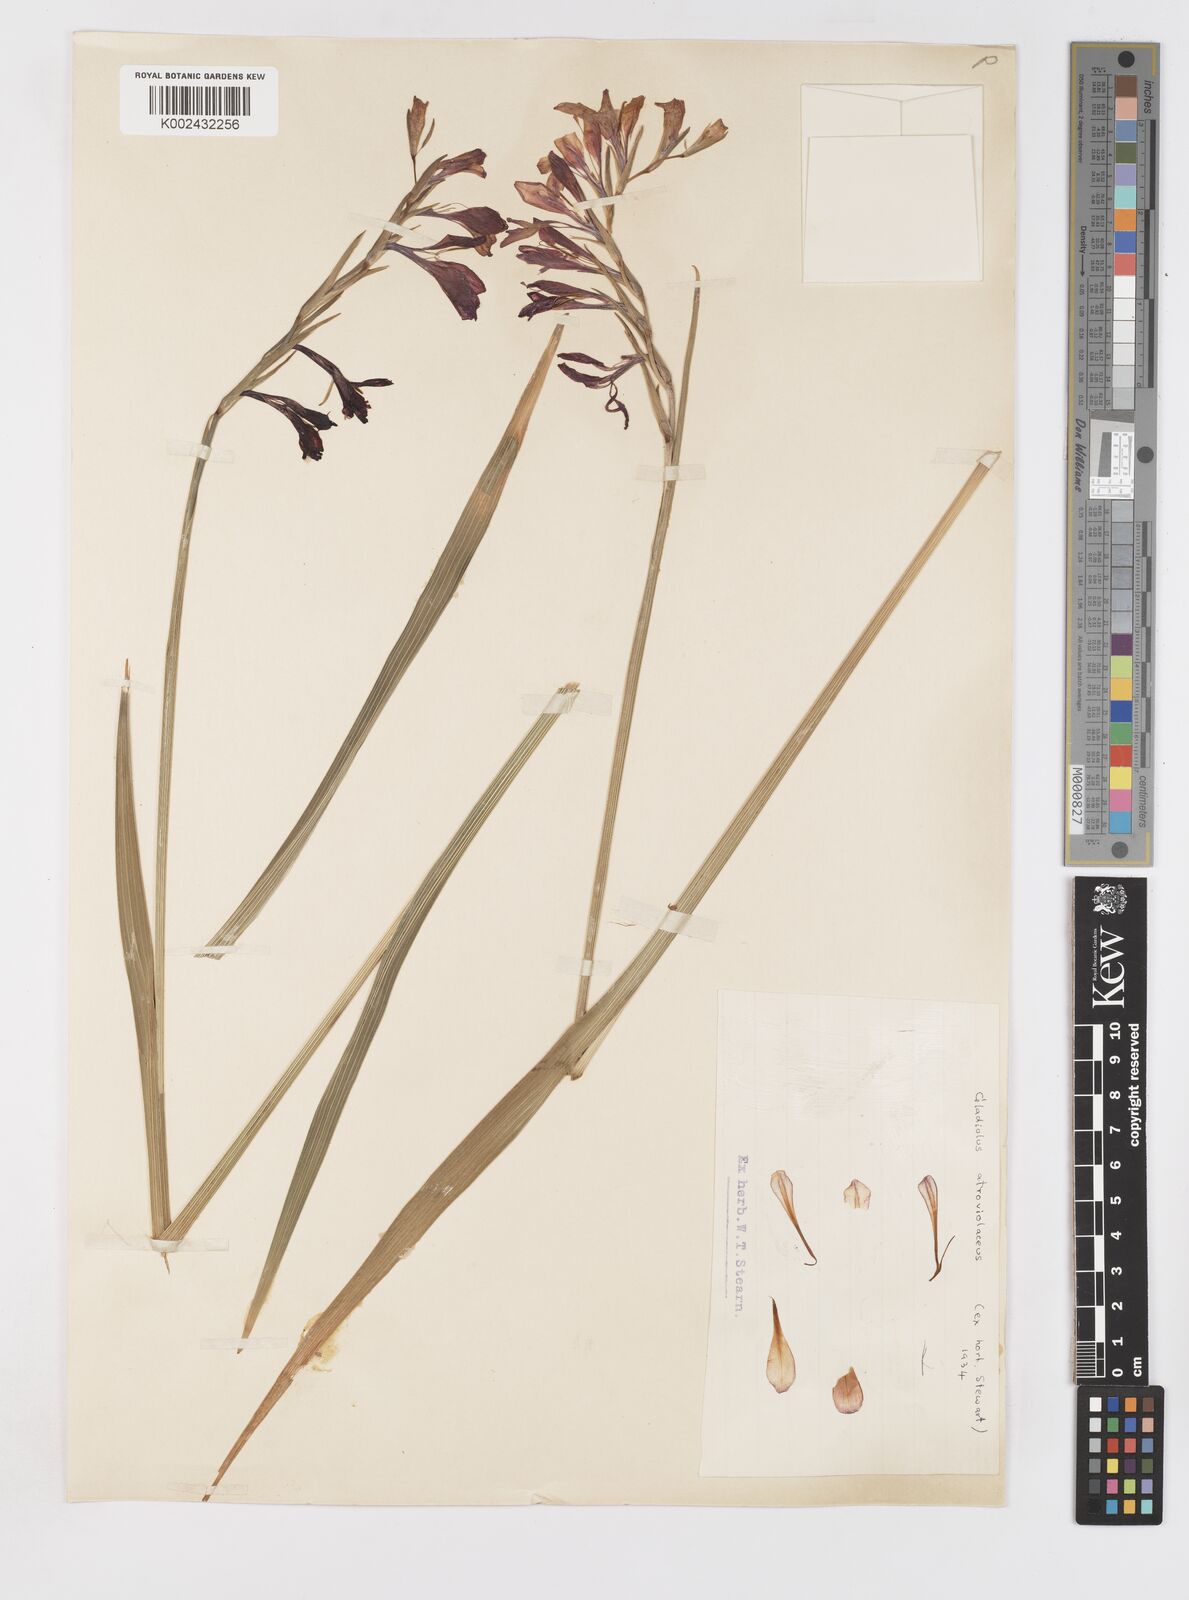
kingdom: Plantae
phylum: Tracheophyta
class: Liliopsida
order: Asparagales
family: Iridaceae
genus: Gladiolus
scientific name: Gladiolus atroviolaceus
